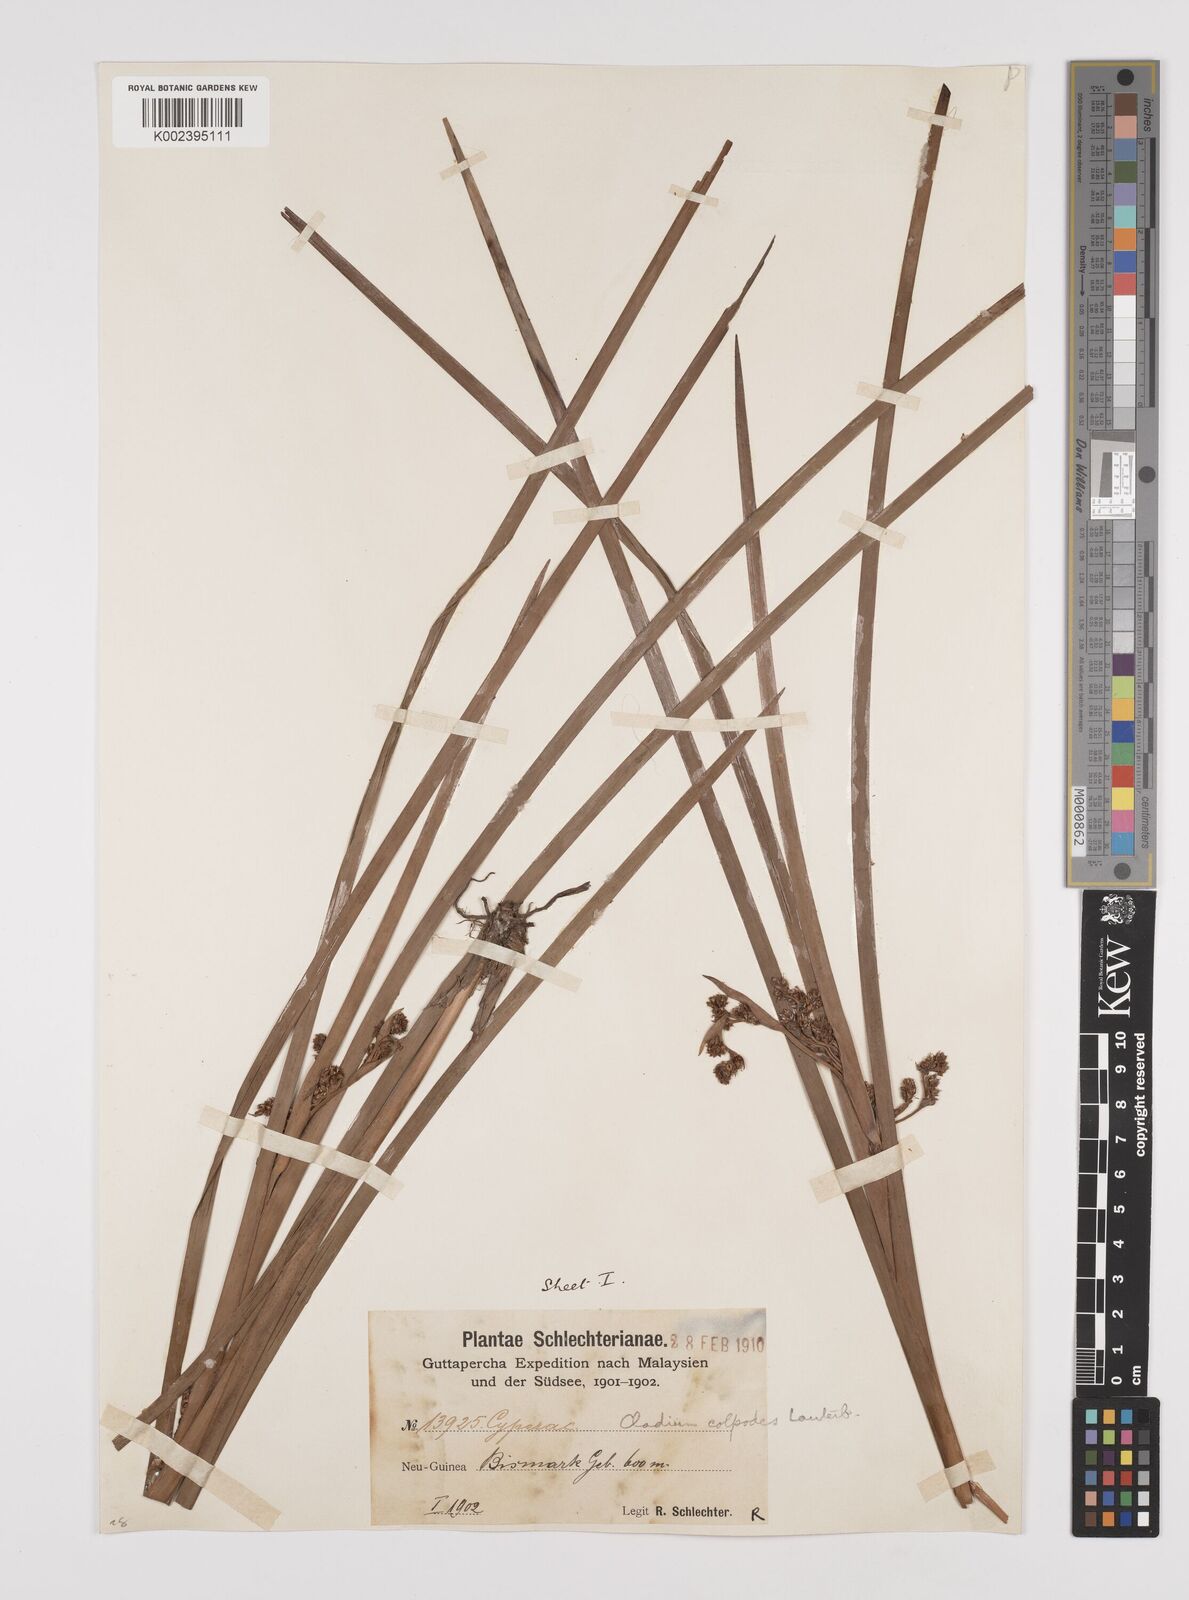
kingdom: Plantae
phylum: Tracheophyta
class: Liliopsida
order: Poales
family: Cyperaceae
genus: Machaerina
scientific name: Machaerina glomerata
